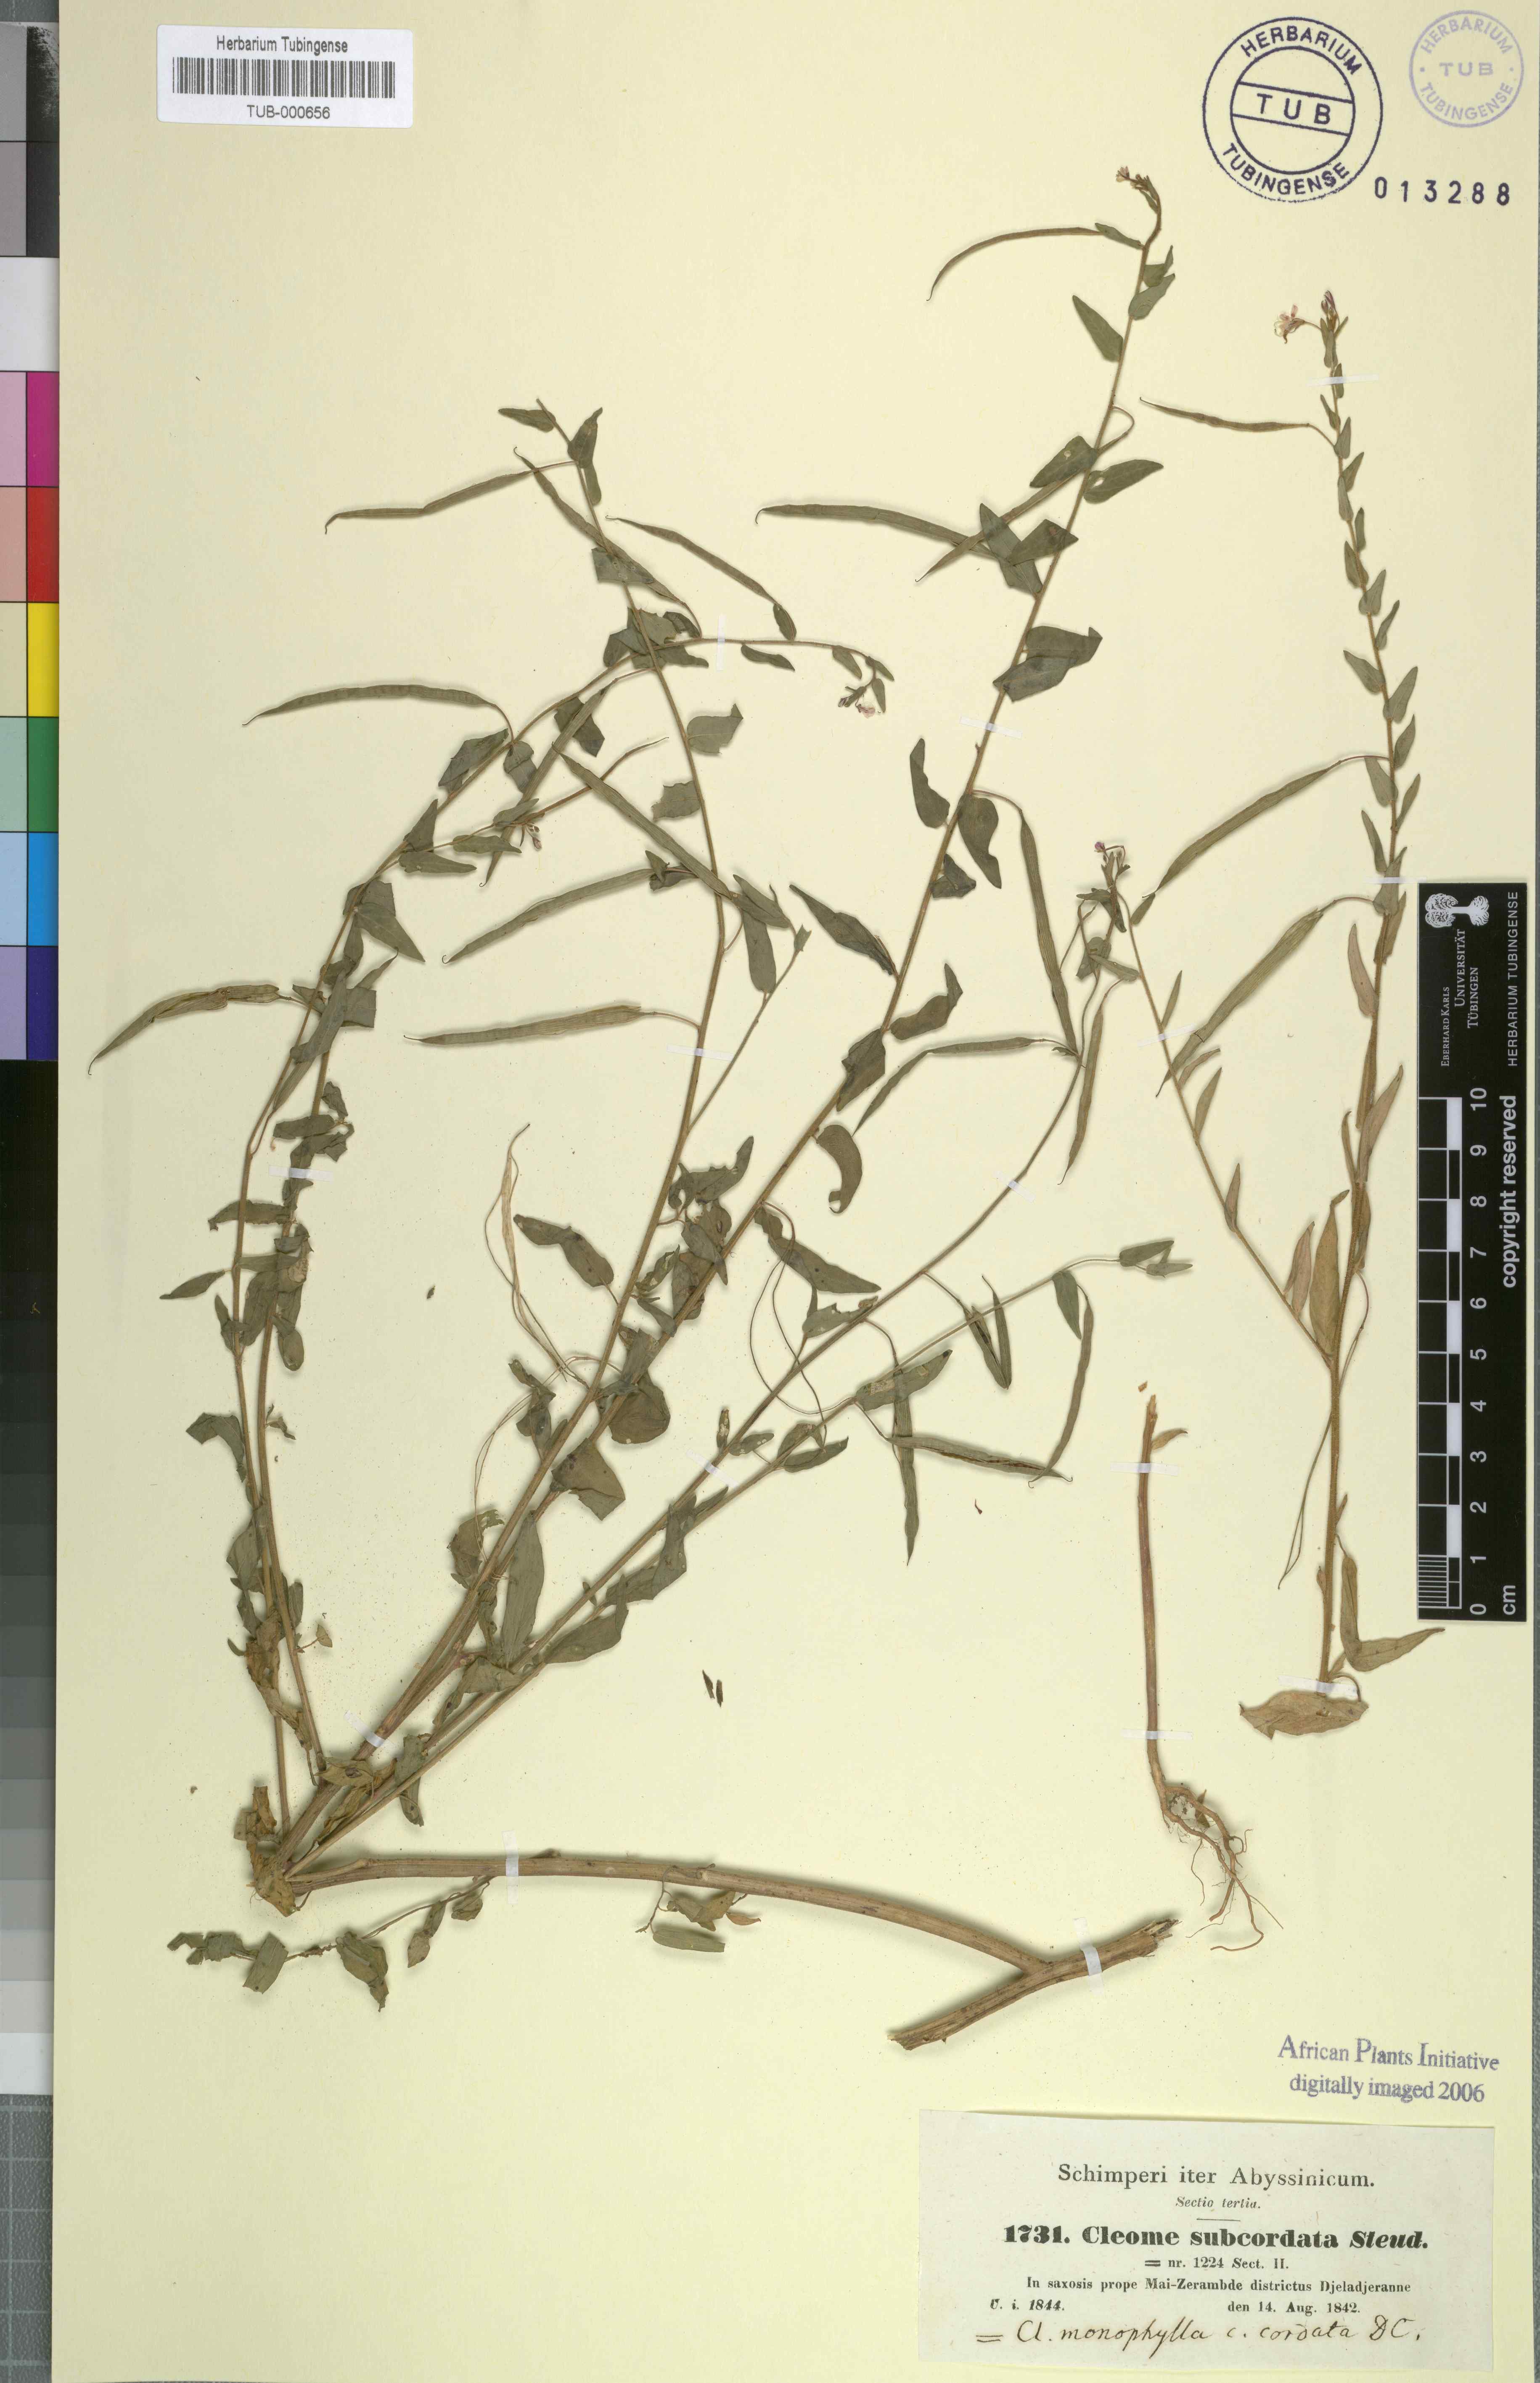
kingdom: Plantae
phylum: Tracheophyta
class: Magnoliopsida
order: Brassicales
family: Cleomaceae
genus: Sieruela
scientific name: Sieruela monophylla
